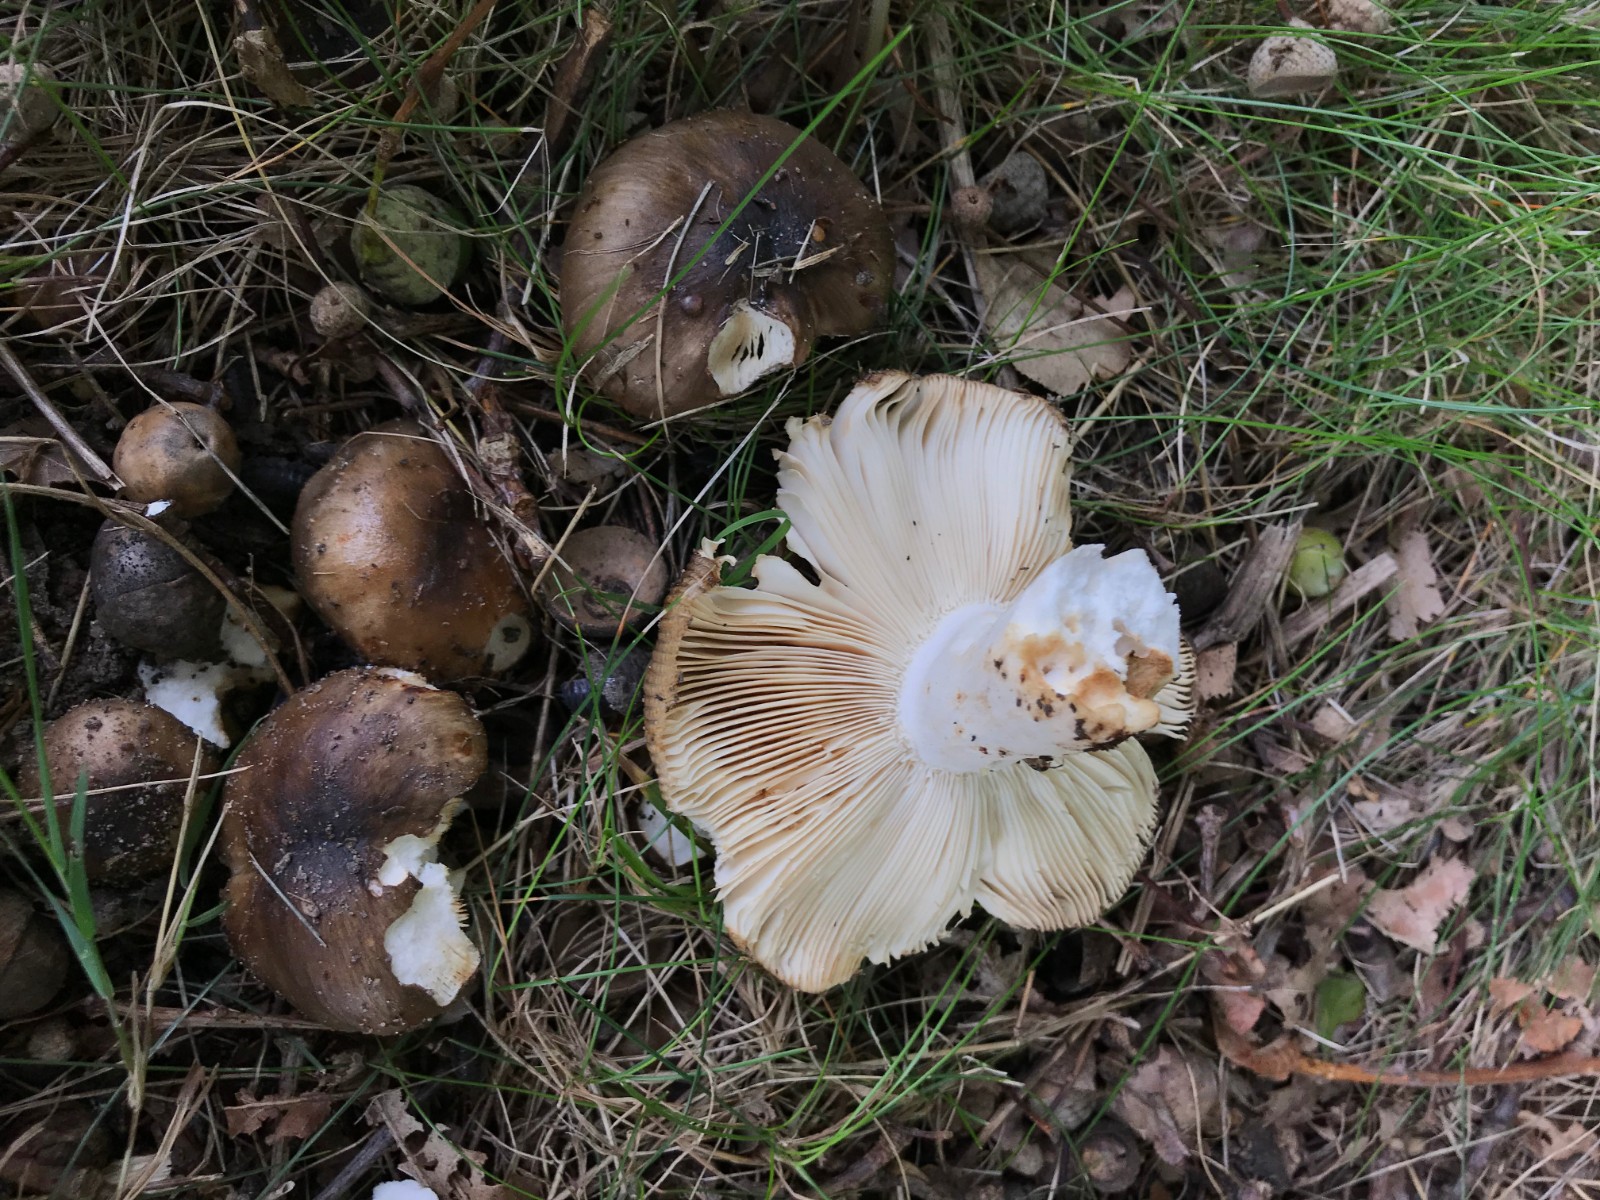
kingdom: Fungi
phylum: Basidiomycota
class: Agaricomycetes
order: Russulales
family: Russulaceae
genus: Russula
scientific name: Russula sororia
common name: brun kam-skørhat
